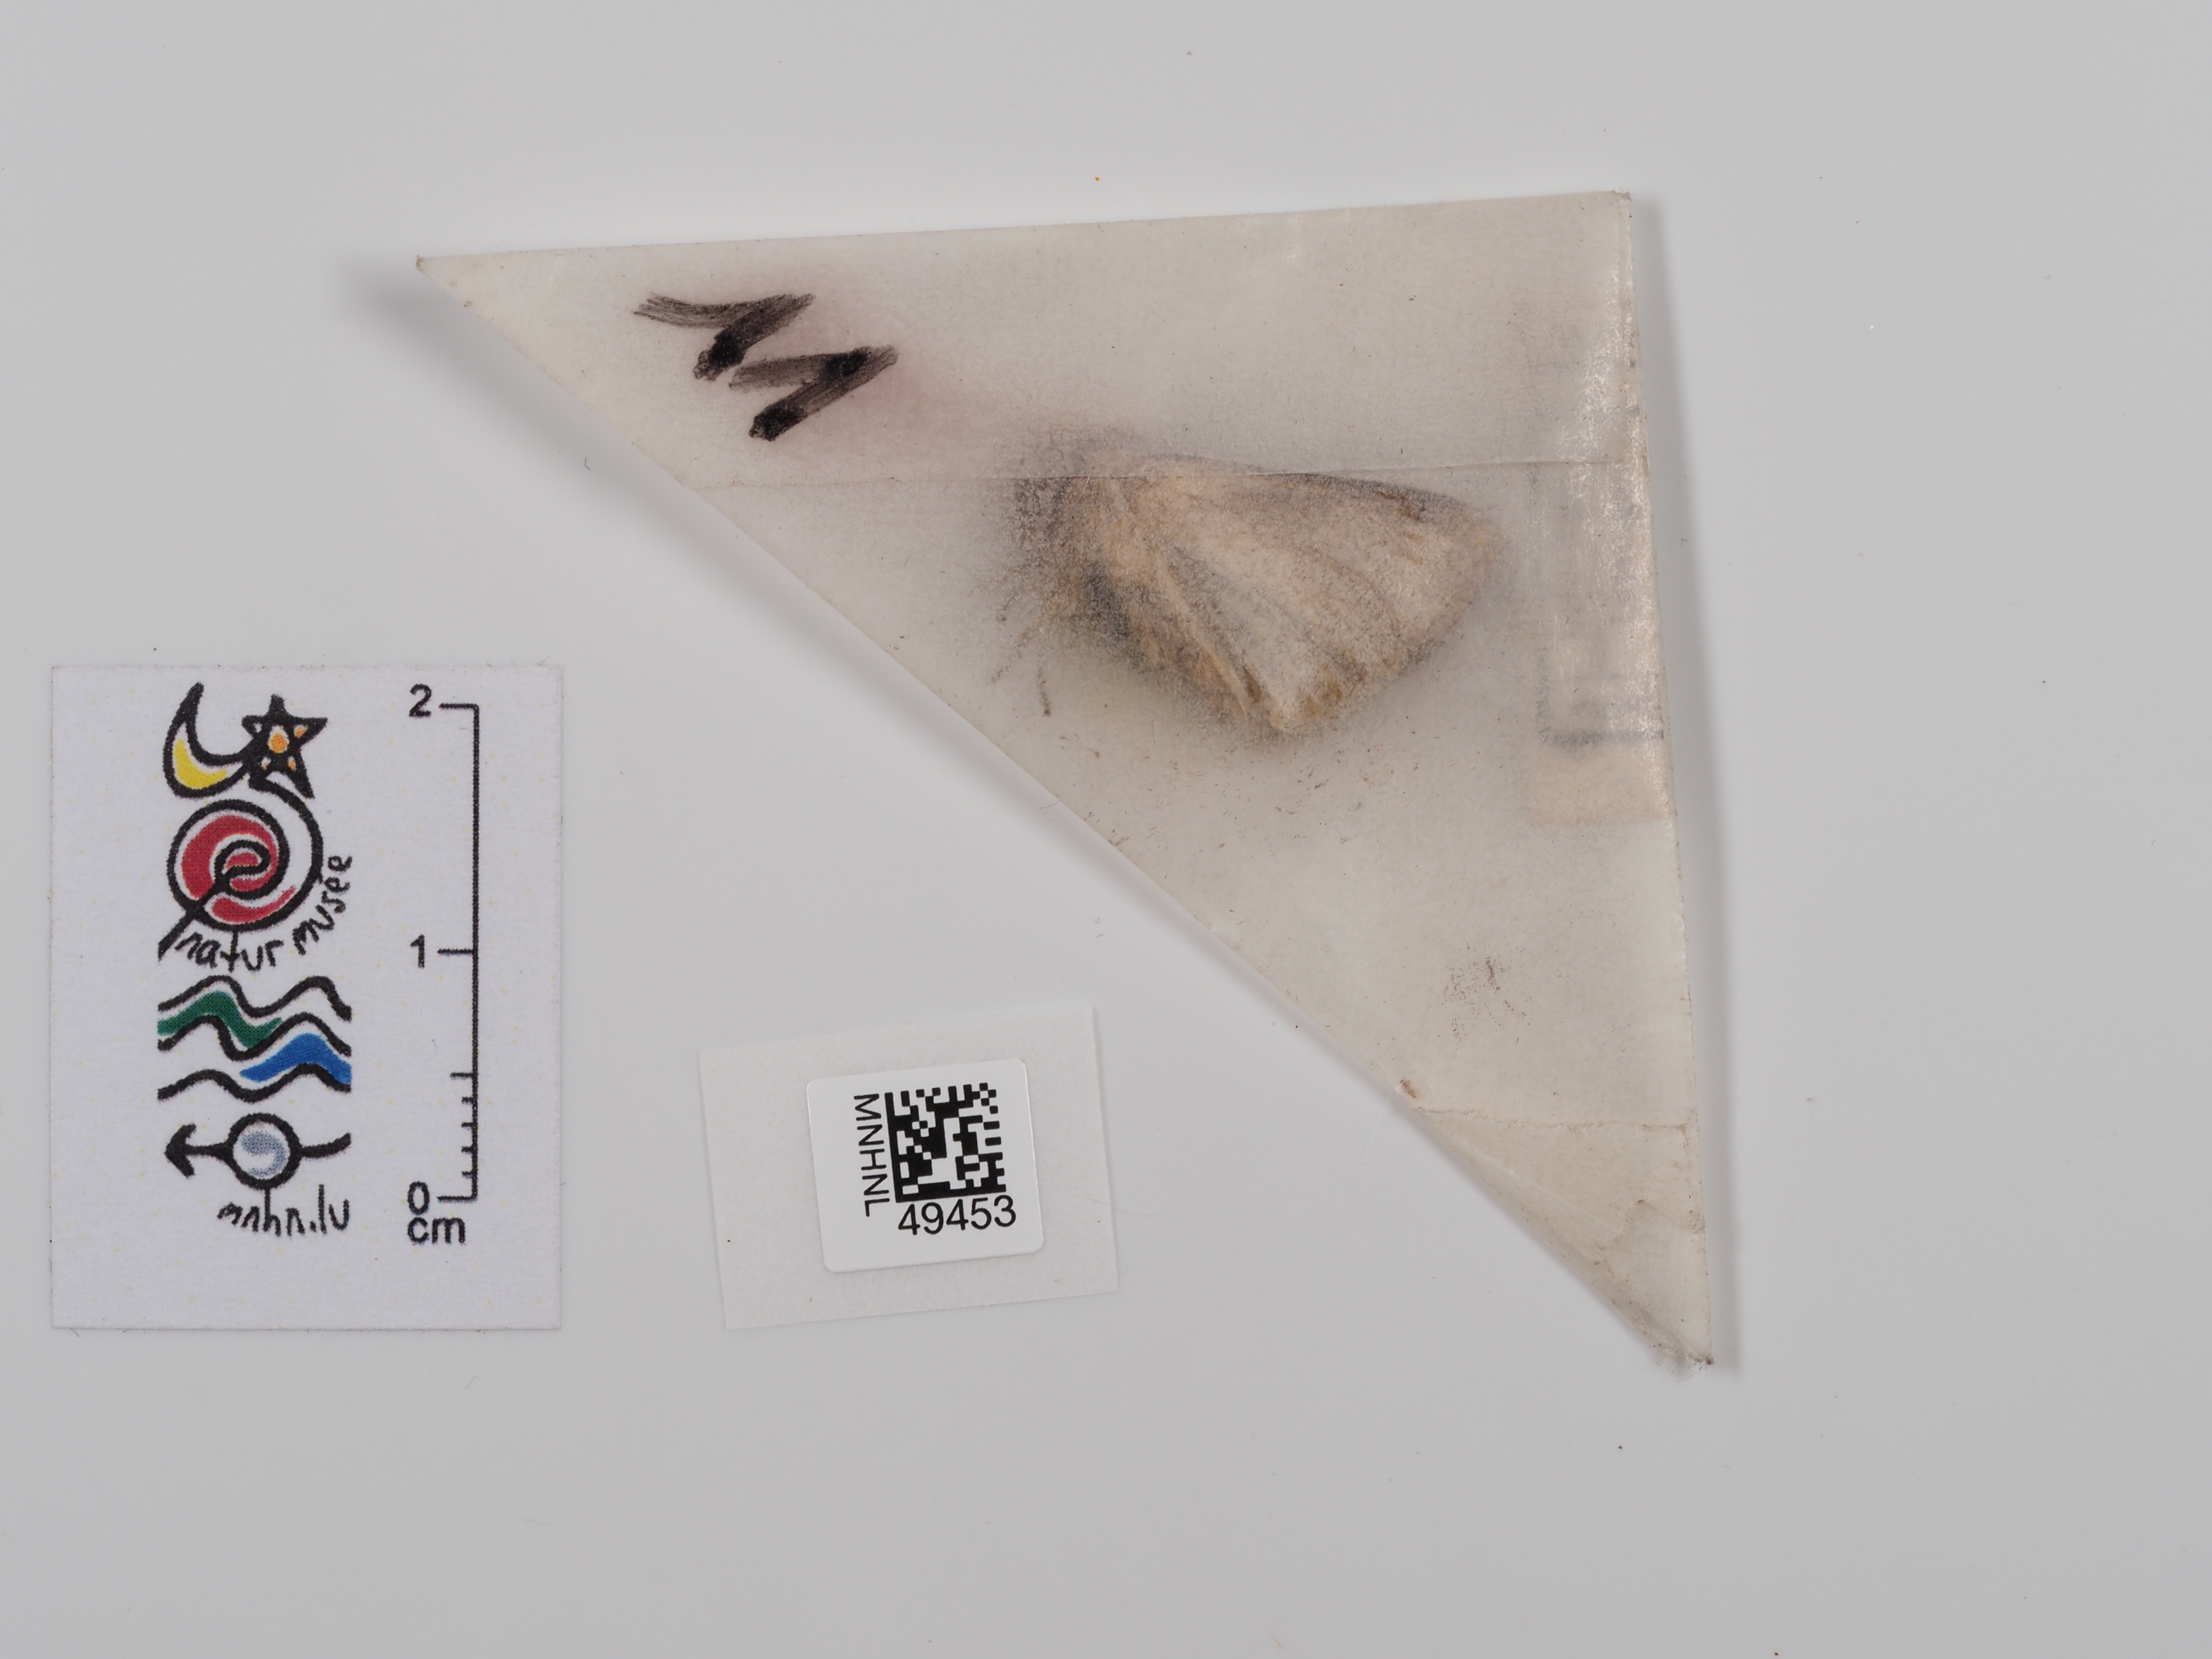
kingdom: Animalia
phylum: Arthropoda
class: Insecta
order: Lepidoptera
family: Noctuidae
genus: Mythimna
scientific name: Mythimna albipuncta
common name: White-point
